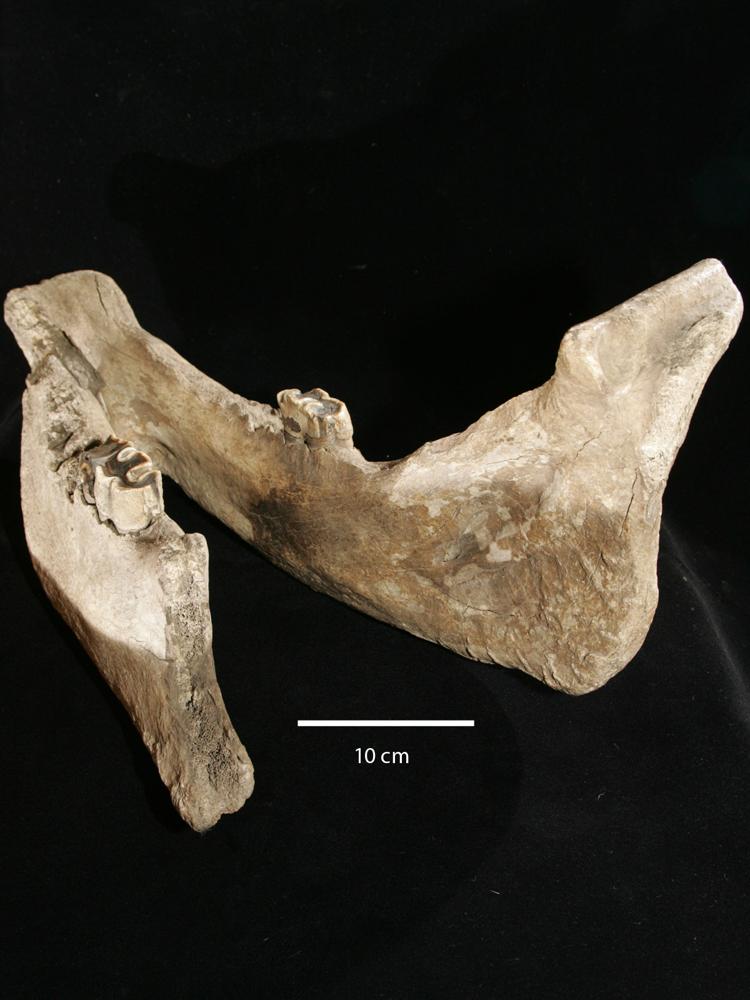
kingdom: Animalia
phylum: Chordata
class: Mammalia
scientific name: Mammalia
